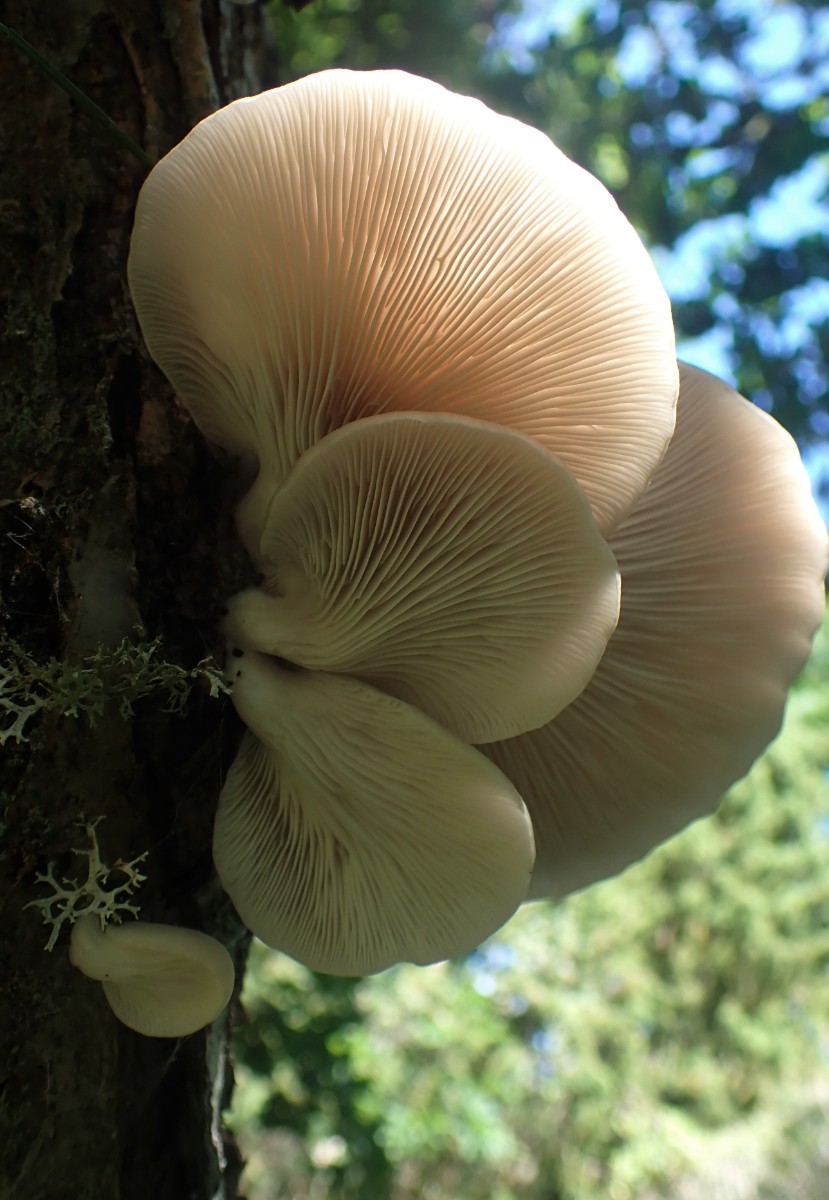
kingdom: Fungi
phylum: Basidiomycota
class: Agaricomycetes
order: Agaricales
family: Pleurotaceae
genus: Pleurotus
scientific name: Pleurotus pulmonarius
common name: sommer-østershat
